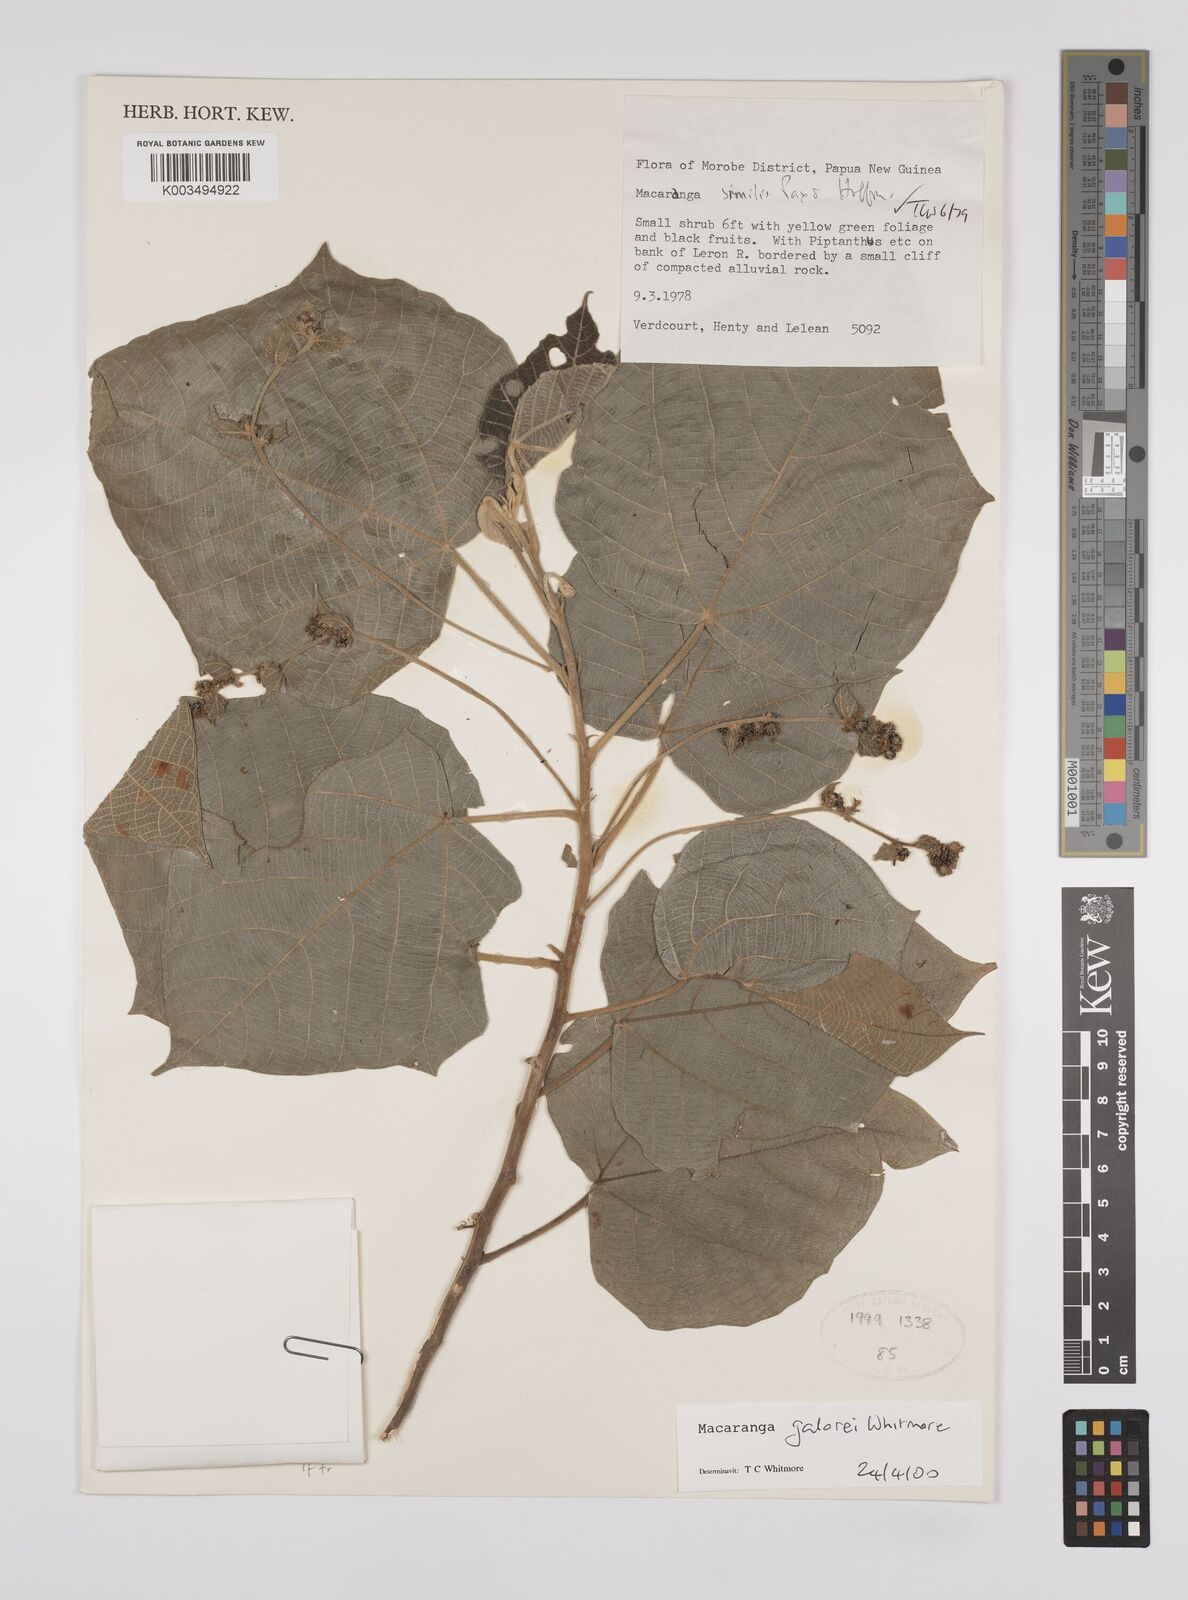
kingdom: Plantae
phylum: Tracheophyta
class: Magnoliopsida
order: Malpighiales
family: Euphorbiaceae
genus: Macaranga
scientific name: Macaranga galorei
